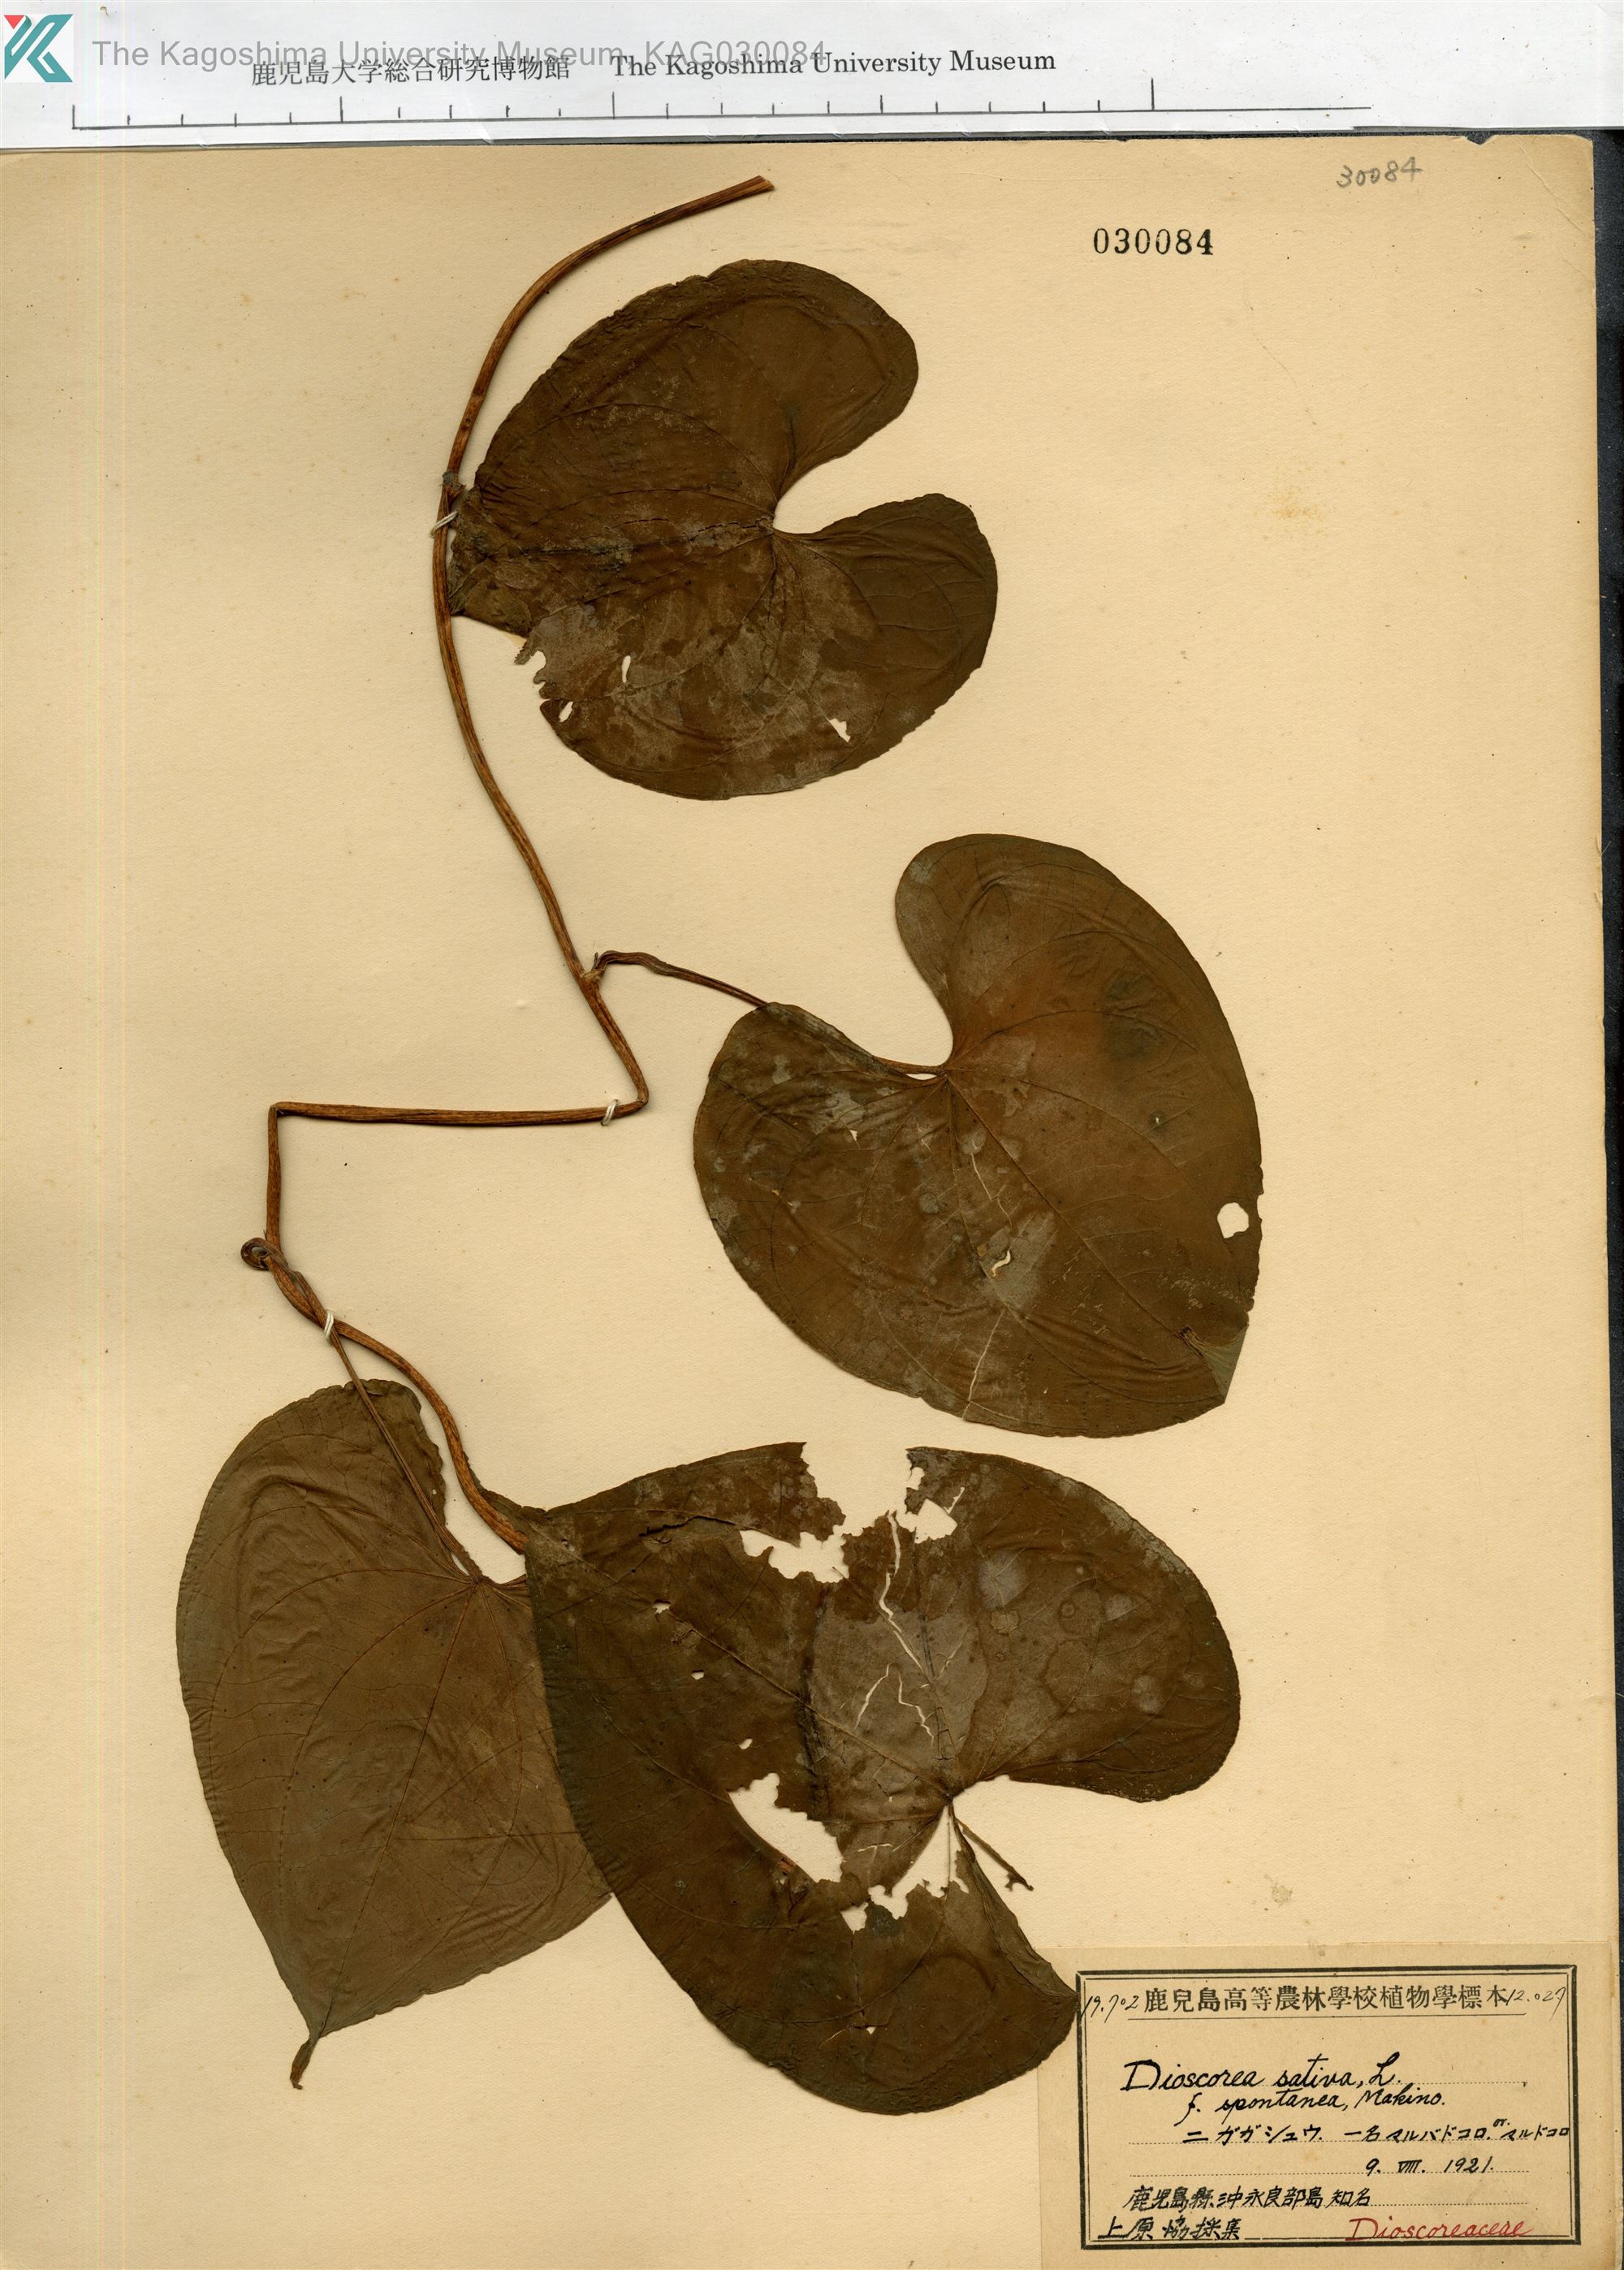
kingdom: Plantae
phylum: Tracheophyta
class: Liliopsida
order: Dioscoreales
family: Dioscoreaceae
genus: Dioscorea
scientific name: Dioscorea bulbifera
